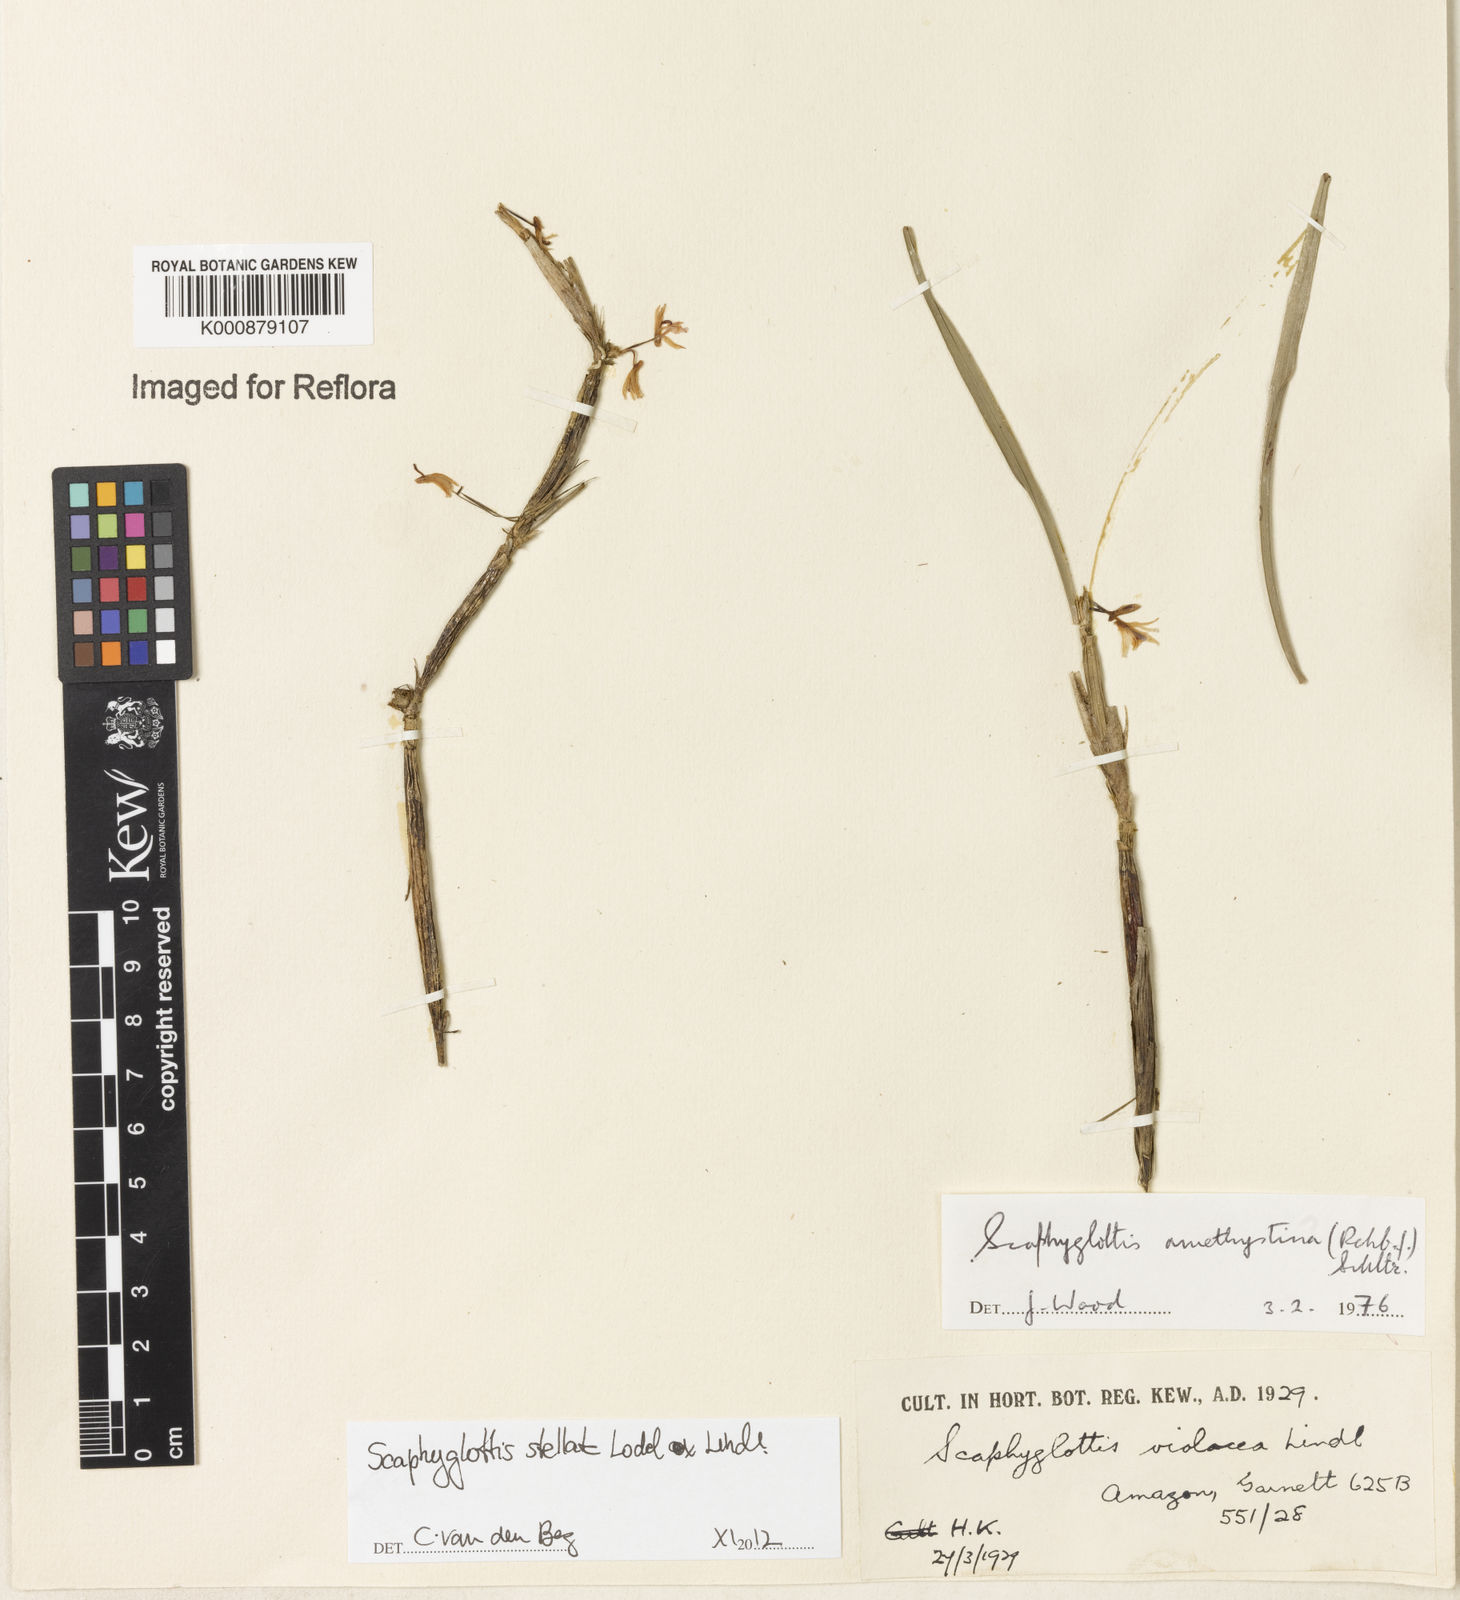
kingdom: Plantae
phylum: Tracheophyta
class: Liliopsida
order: Asparagales
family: Orchidaceae
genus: Scaphyglottis
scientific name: Scaphyglottis stellata
